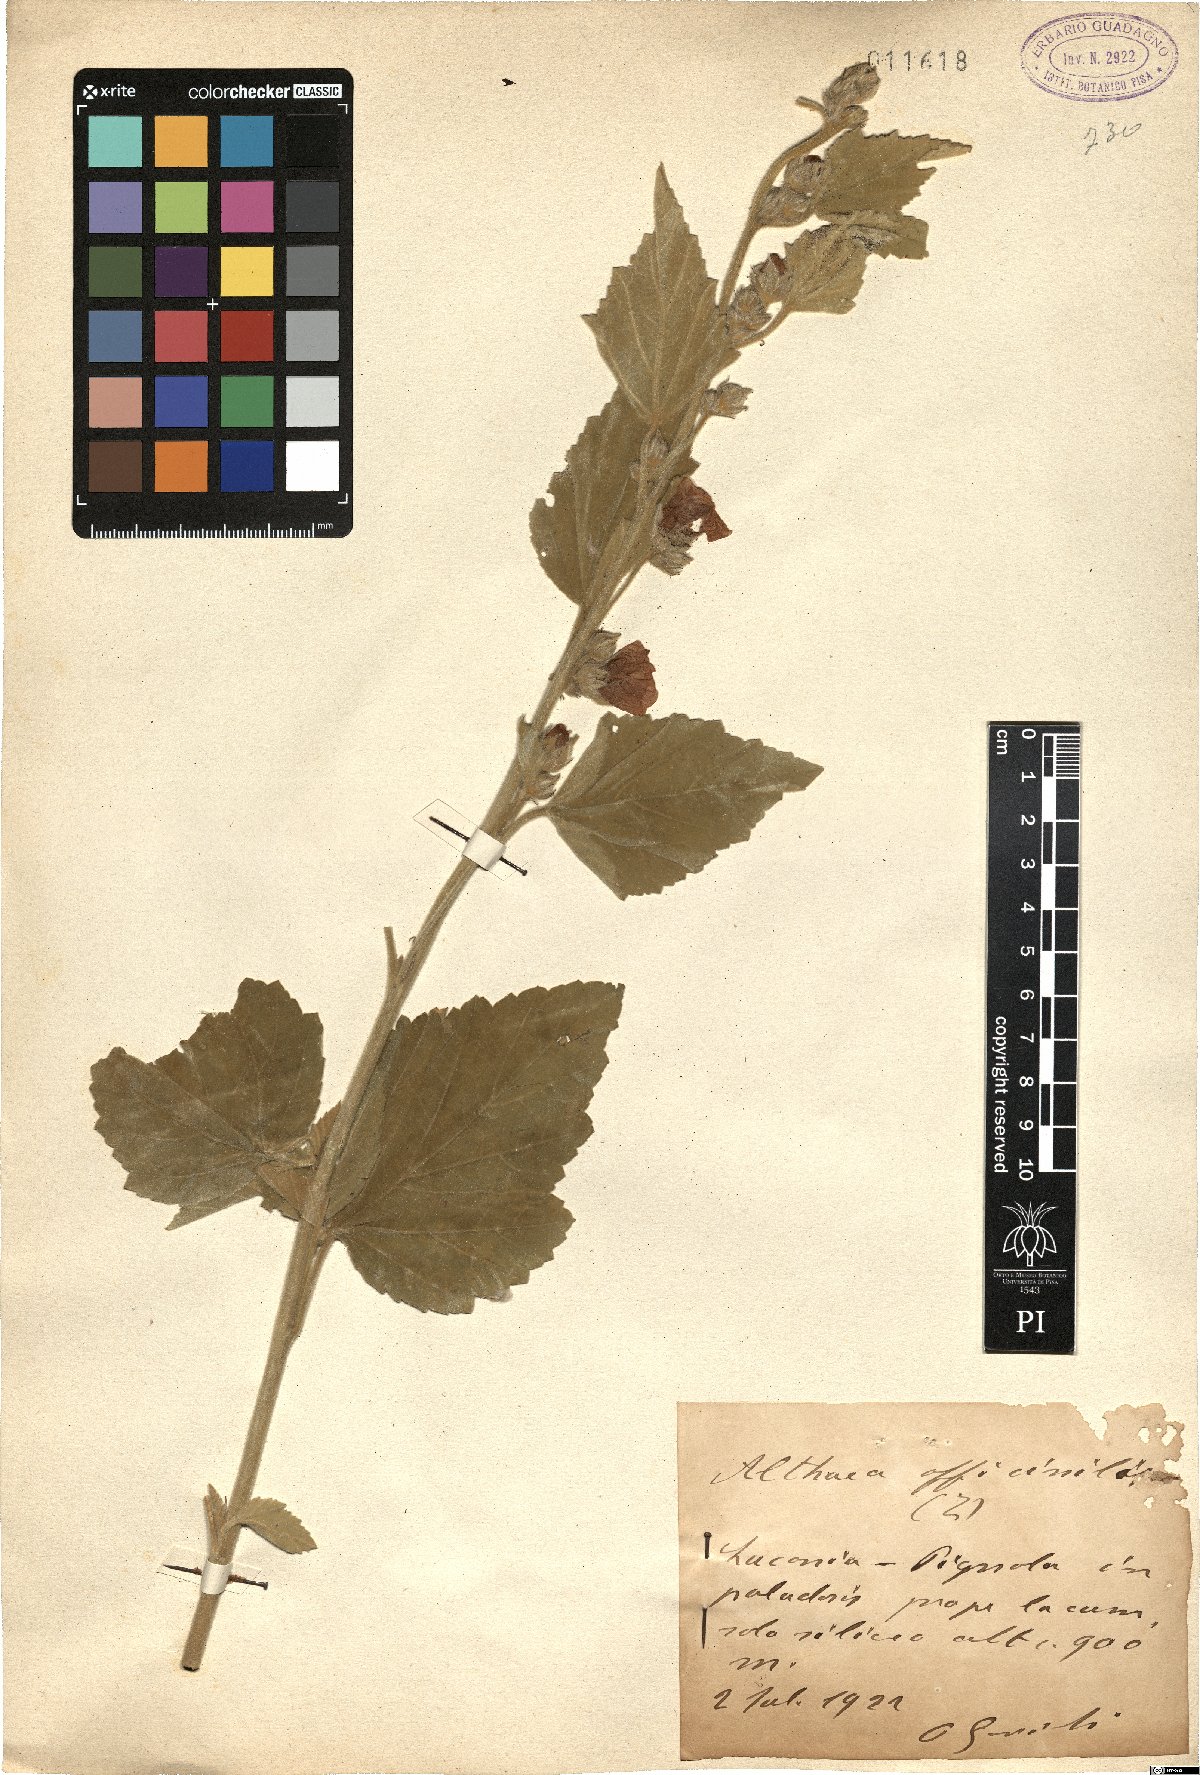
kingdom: Plantae
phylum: Tracheophyta
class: Magnoliopsida
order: Malvales
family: Malvaceae
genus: Althaea
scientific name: Althaea officinalis
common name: Marsh-mallow
